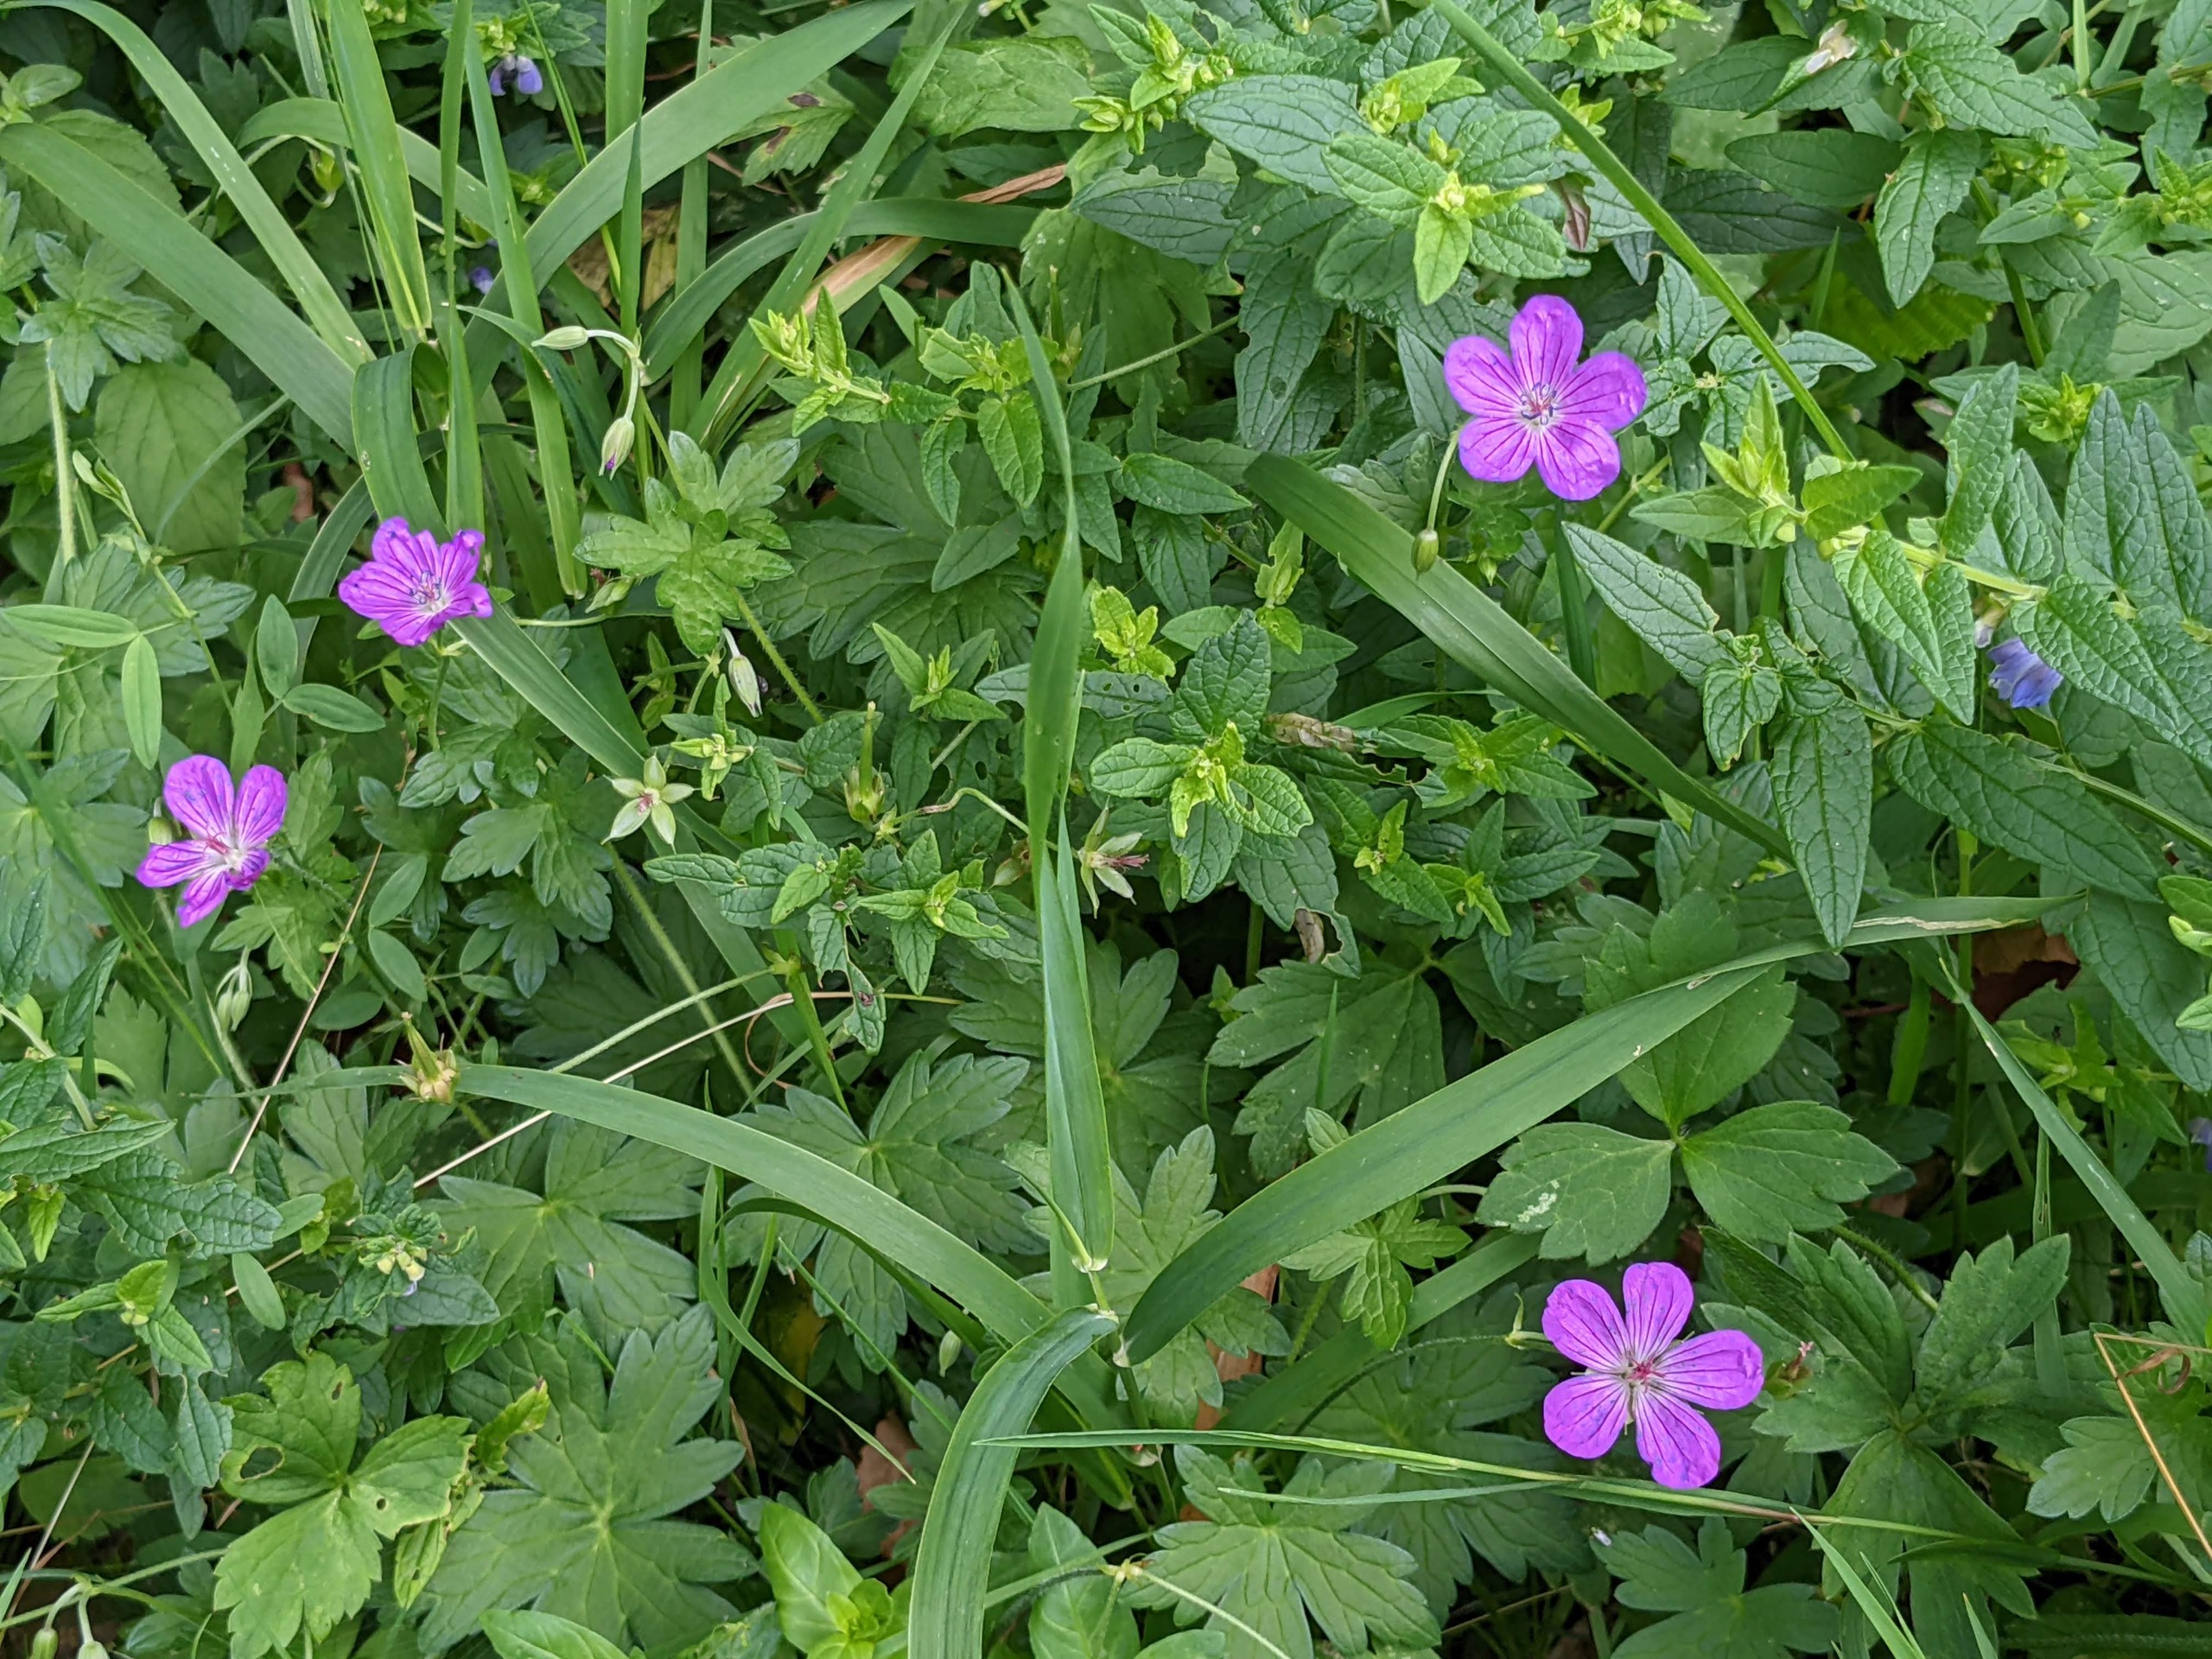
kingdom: Plantae
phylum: Tracheophyta
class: Magnoliopsida
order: Geraniales
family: Geraniaceae
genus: Geranium
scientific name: Geranium palustre
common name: Kær-storkenæb
